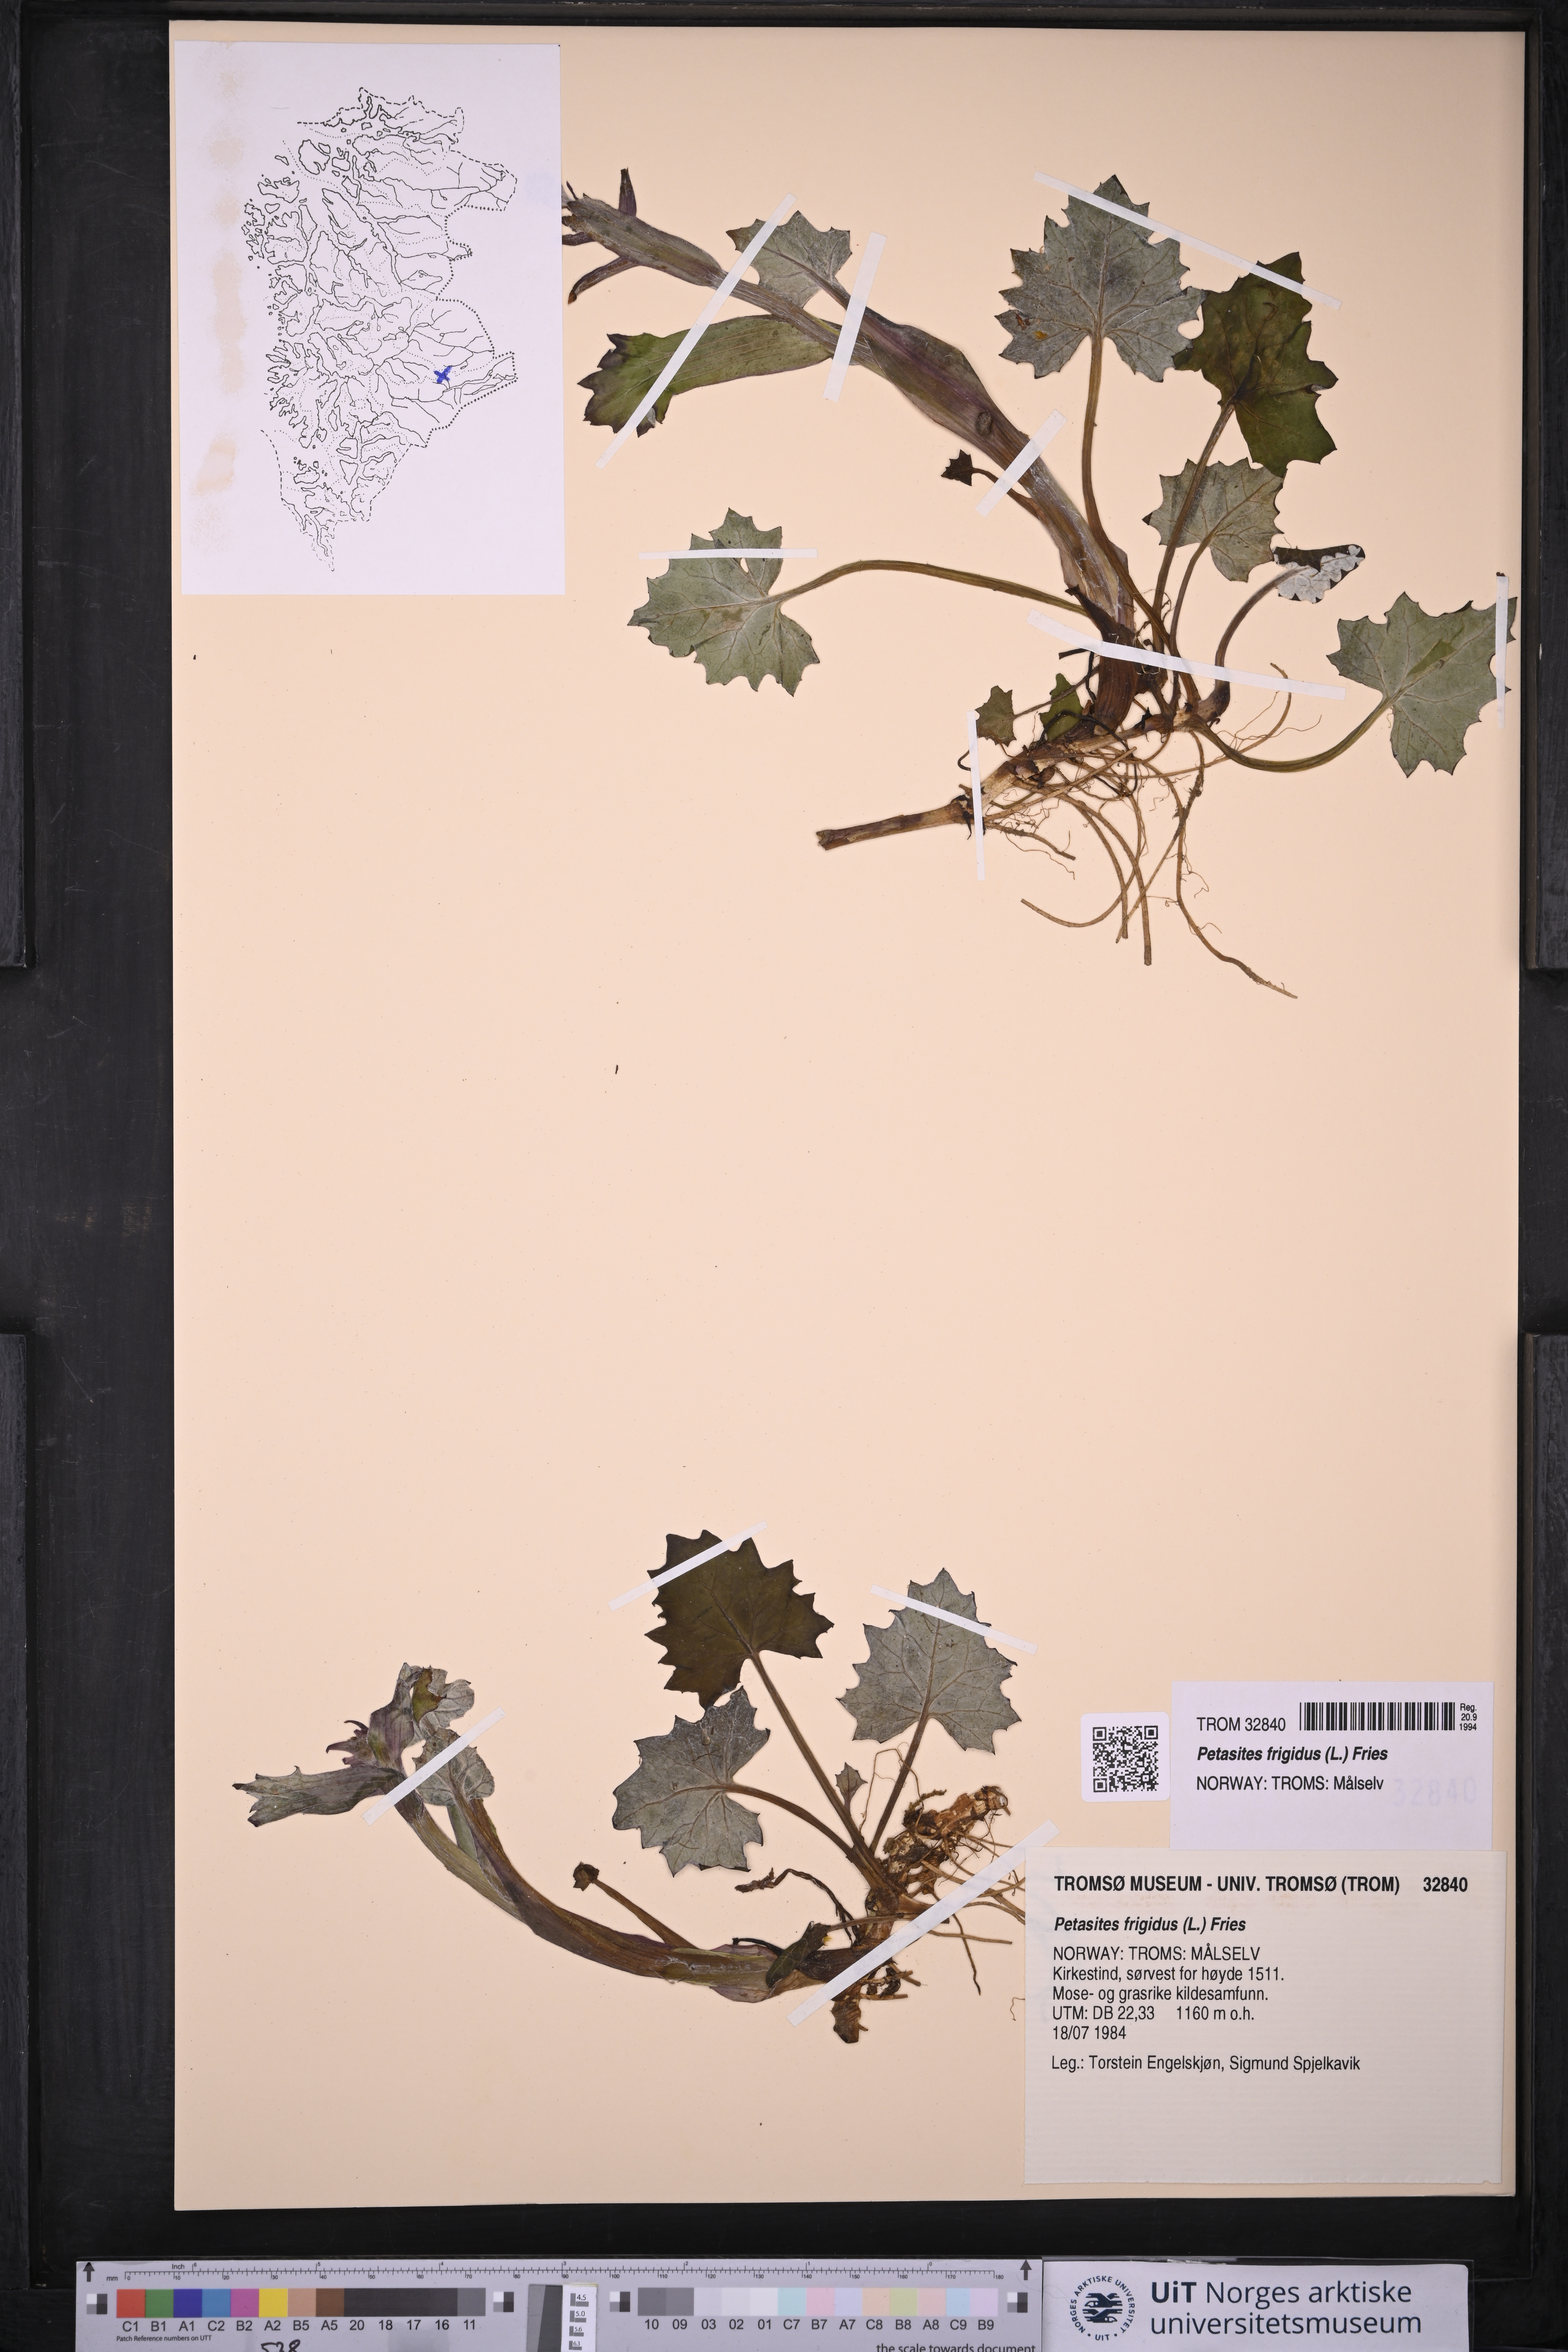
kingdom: Plantae
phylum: Tracheophyta
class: Magnoliopsida
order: Asterales
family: Asteraceae
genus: Petasites
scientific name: Petasites frigidus
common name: Arctic butterbur
